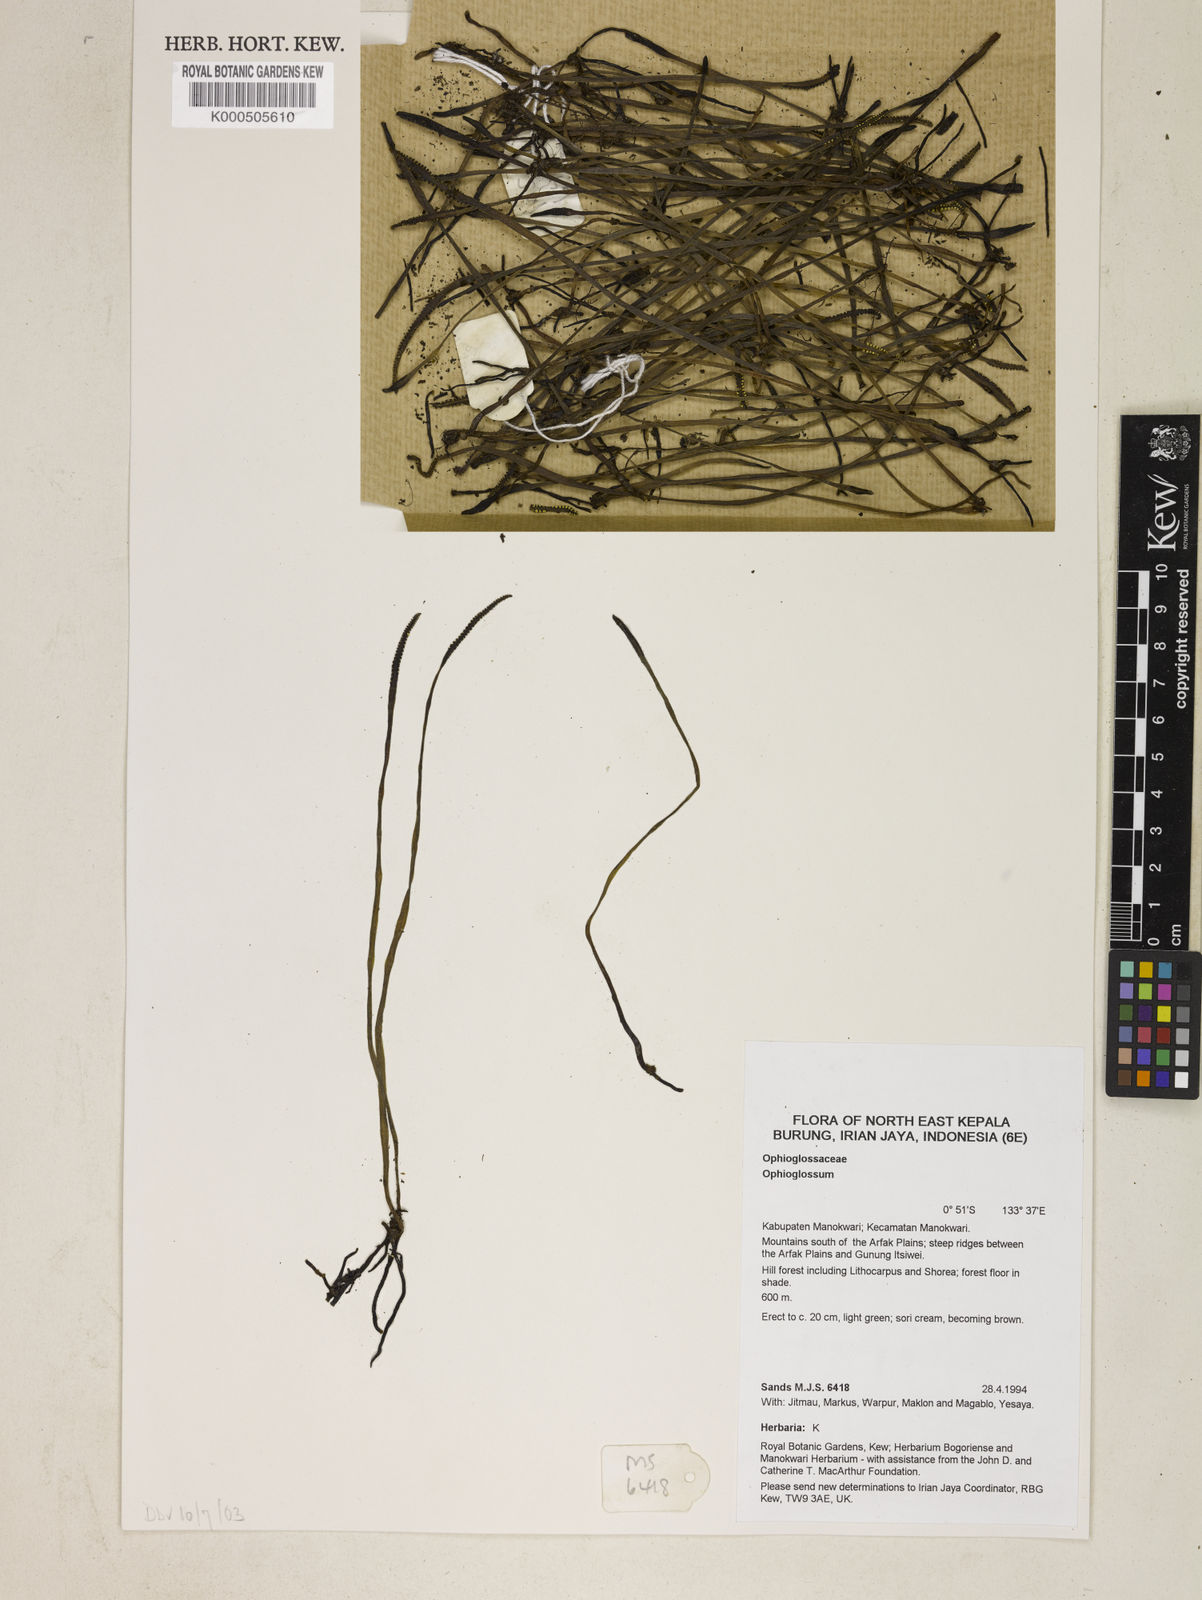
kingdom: Plantae
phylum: Tracheophyta
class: Polypodiopsida
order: Ophioglossales
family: Ophioglossaceae
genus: Ophioglossum
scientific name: Ophioglossum
